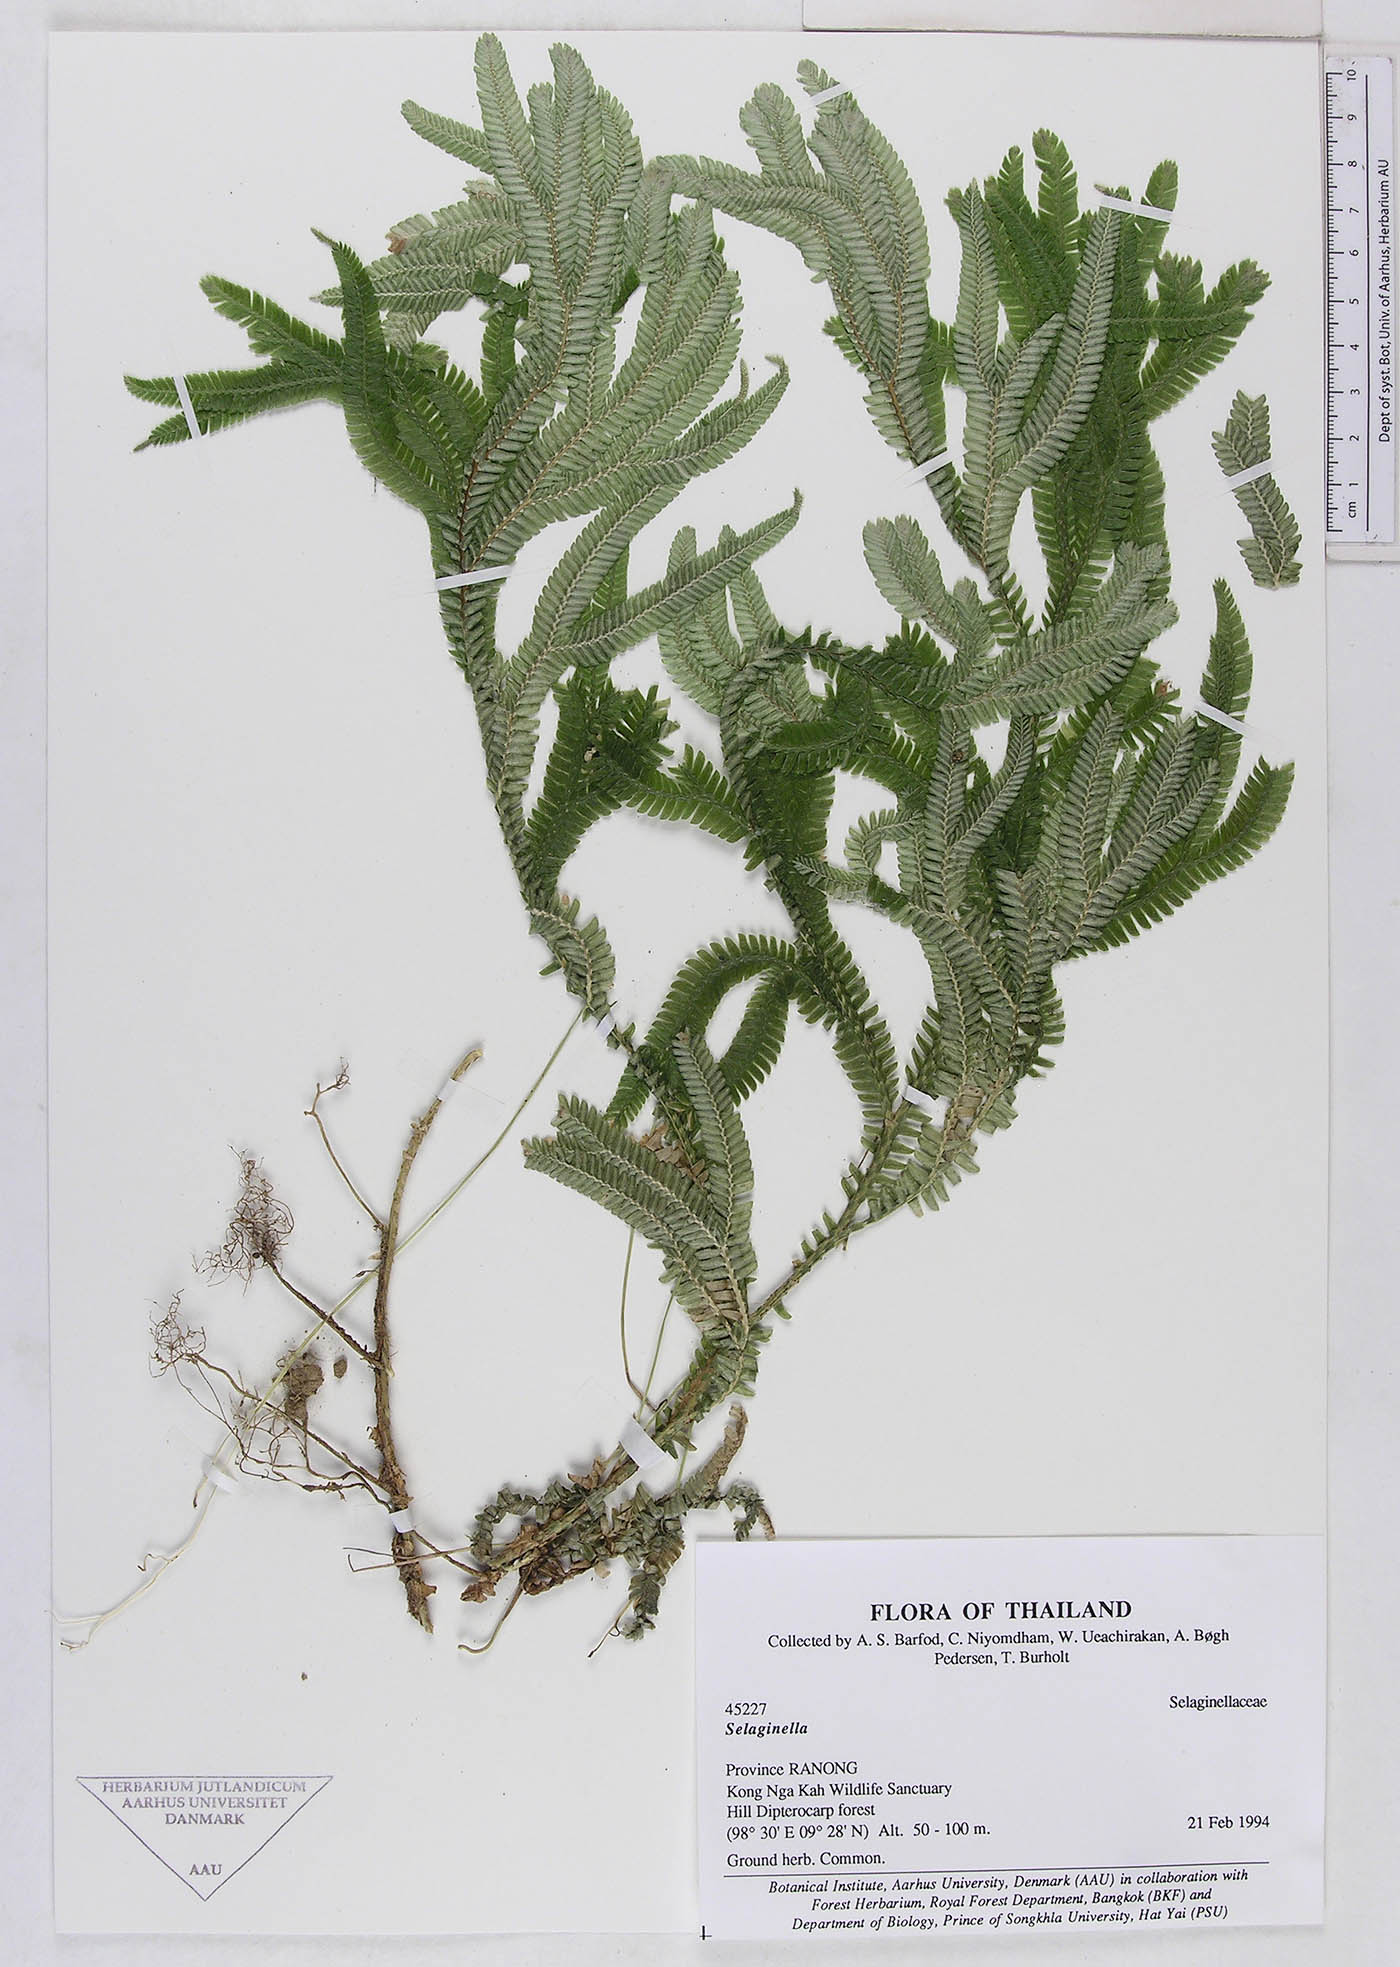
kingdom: Plantae
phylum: Tracheophyta
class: Lycopodiopsida
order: Selaginellales
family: Selaginellaceae
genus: Selaginella
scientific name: Selaginella
